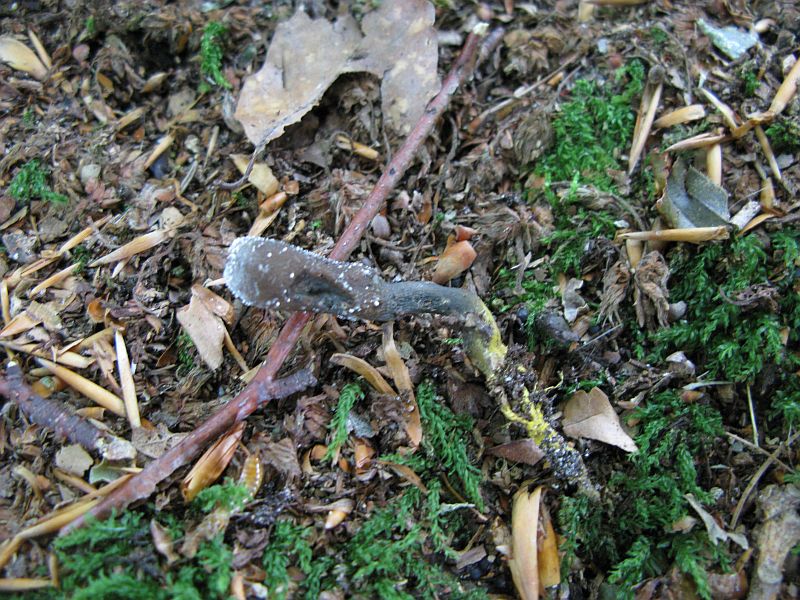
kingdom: Fungi
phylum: Ascomycota
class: Sordariomycetes
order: Hypocreales
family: Ophiocordycipitaceae
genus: Tolypocladium
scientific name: Tolypocladium ophioglossoides
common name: slank snyltekølle
